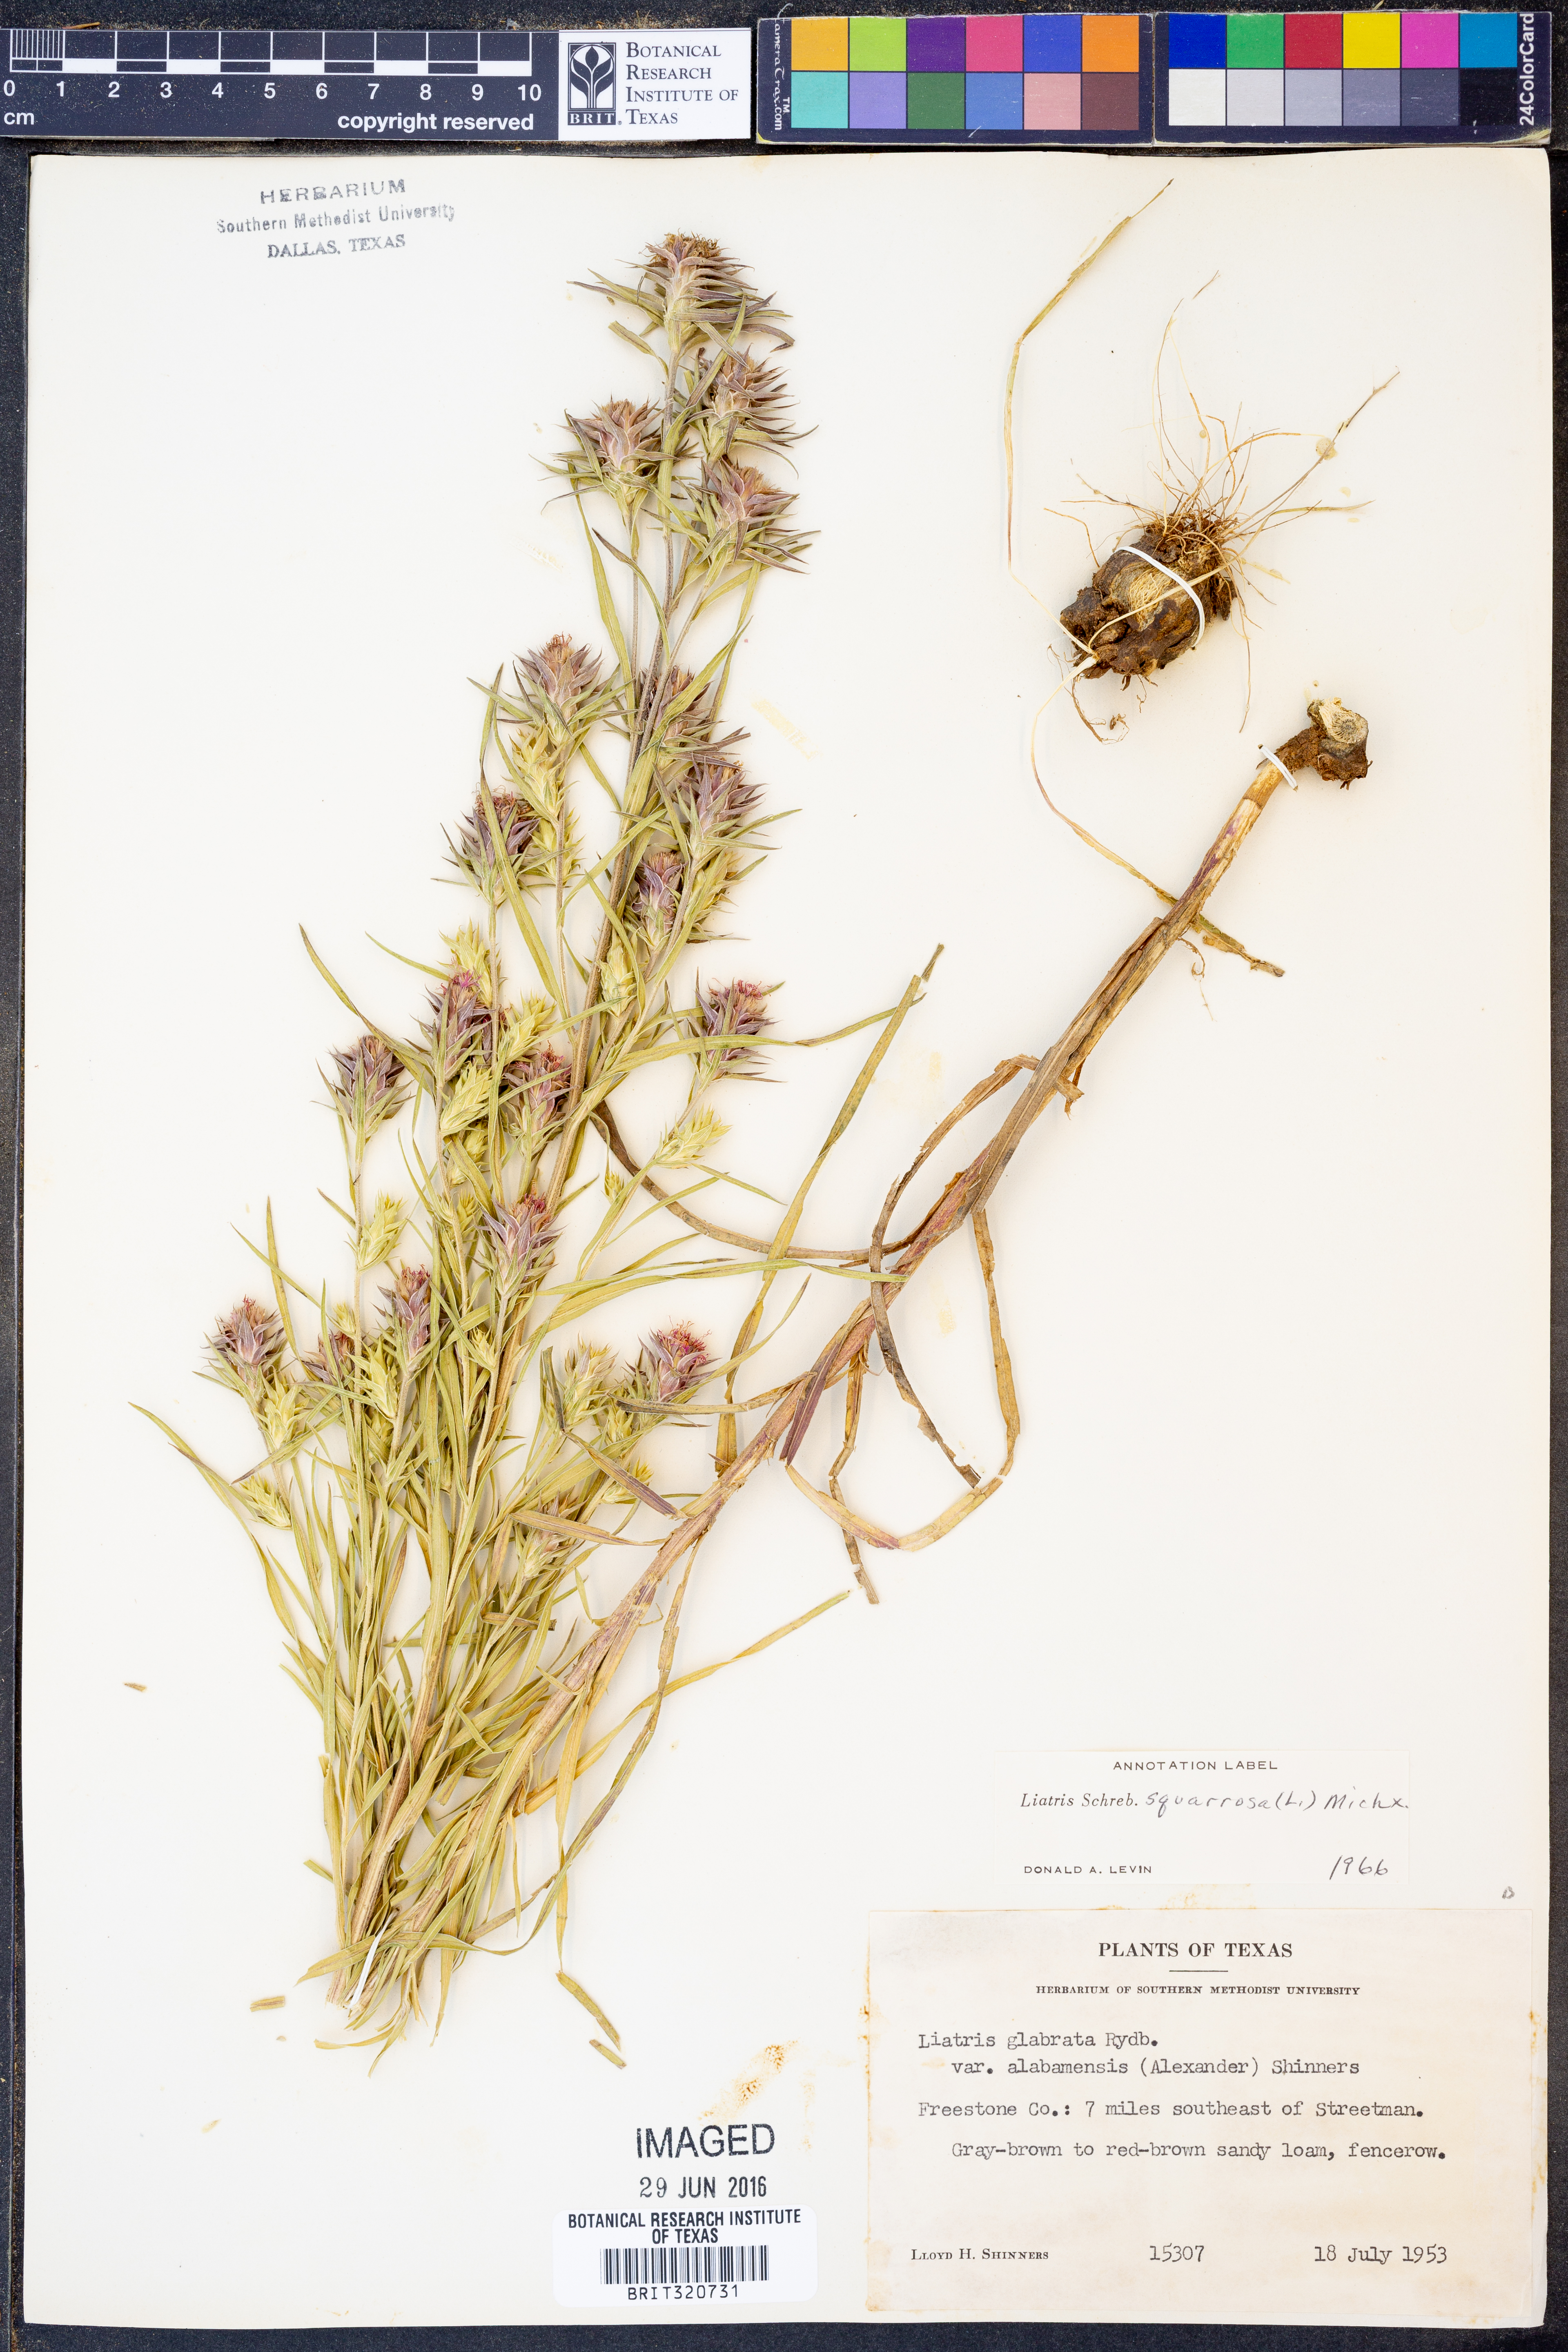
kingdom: Plantae
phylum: Tracheophyta
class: Magnoliopsida
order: Asterales
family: Asteraceae
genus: Liatris
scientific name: Liatris squarrosa
